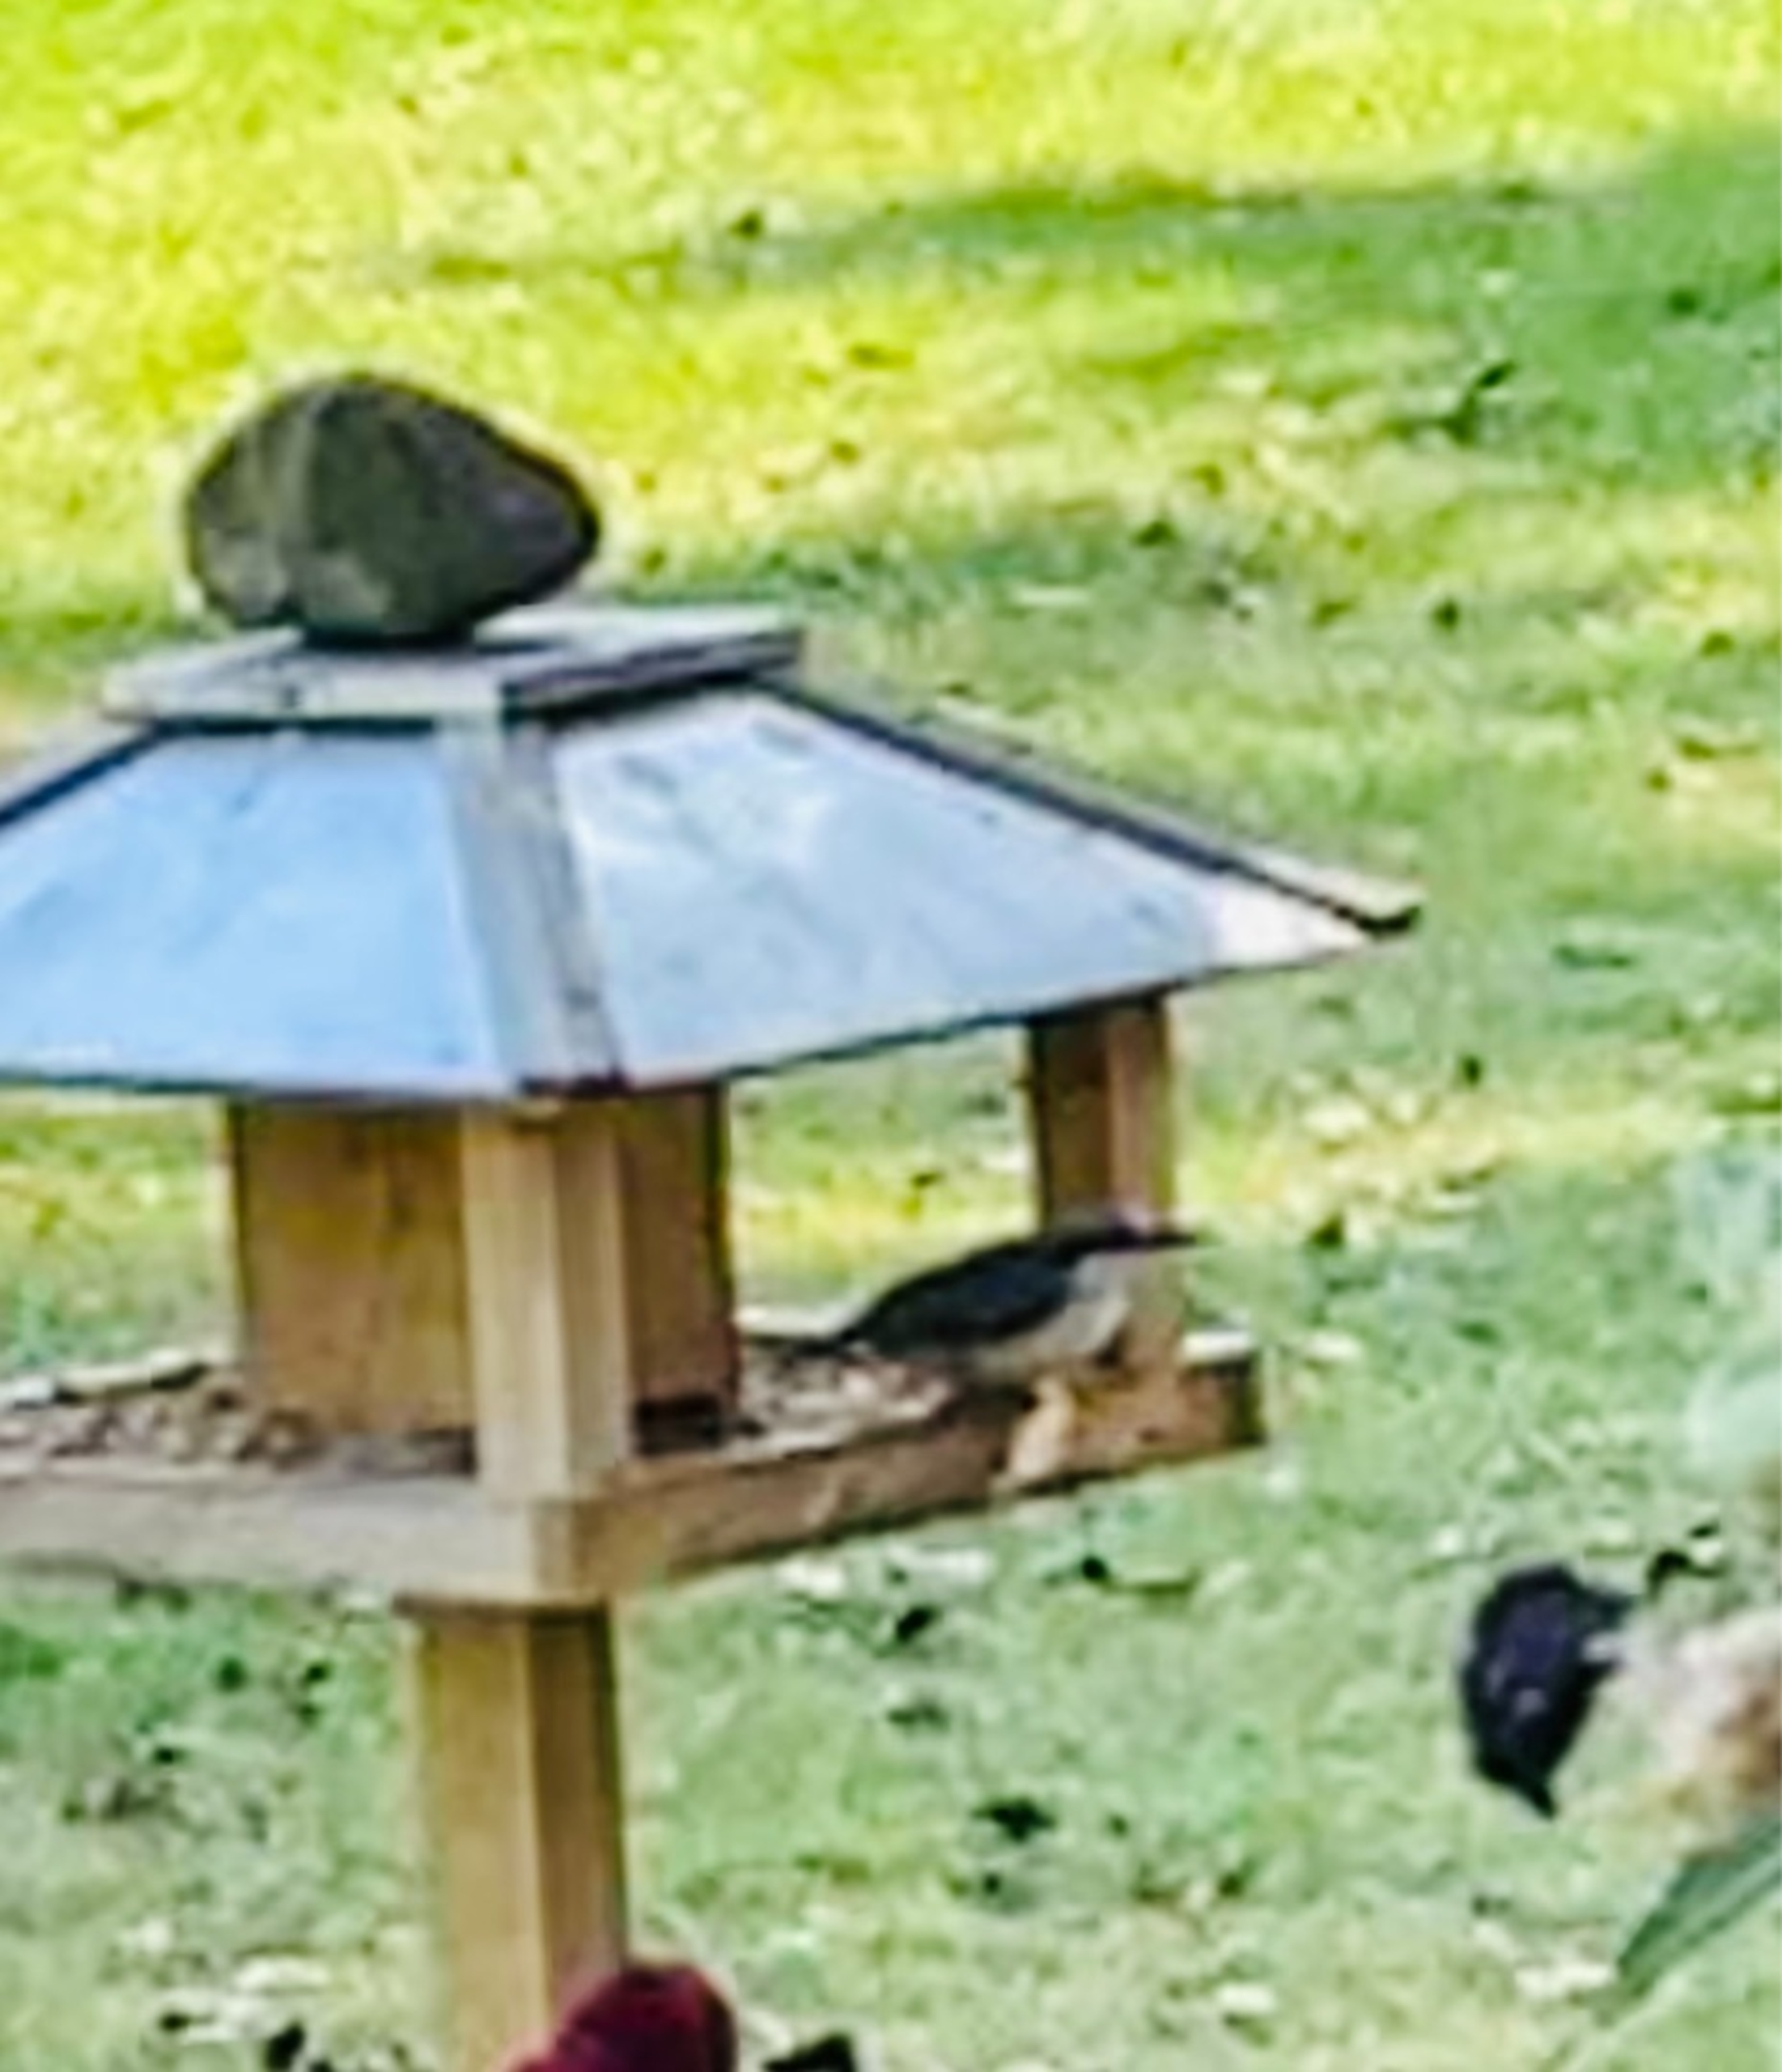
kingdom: Animalia
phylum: Chordata
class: Aves
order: Passeriformes
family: Sittidae
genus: Sitta
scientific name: Sitta europaea
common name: Lysbuget spætmejse
